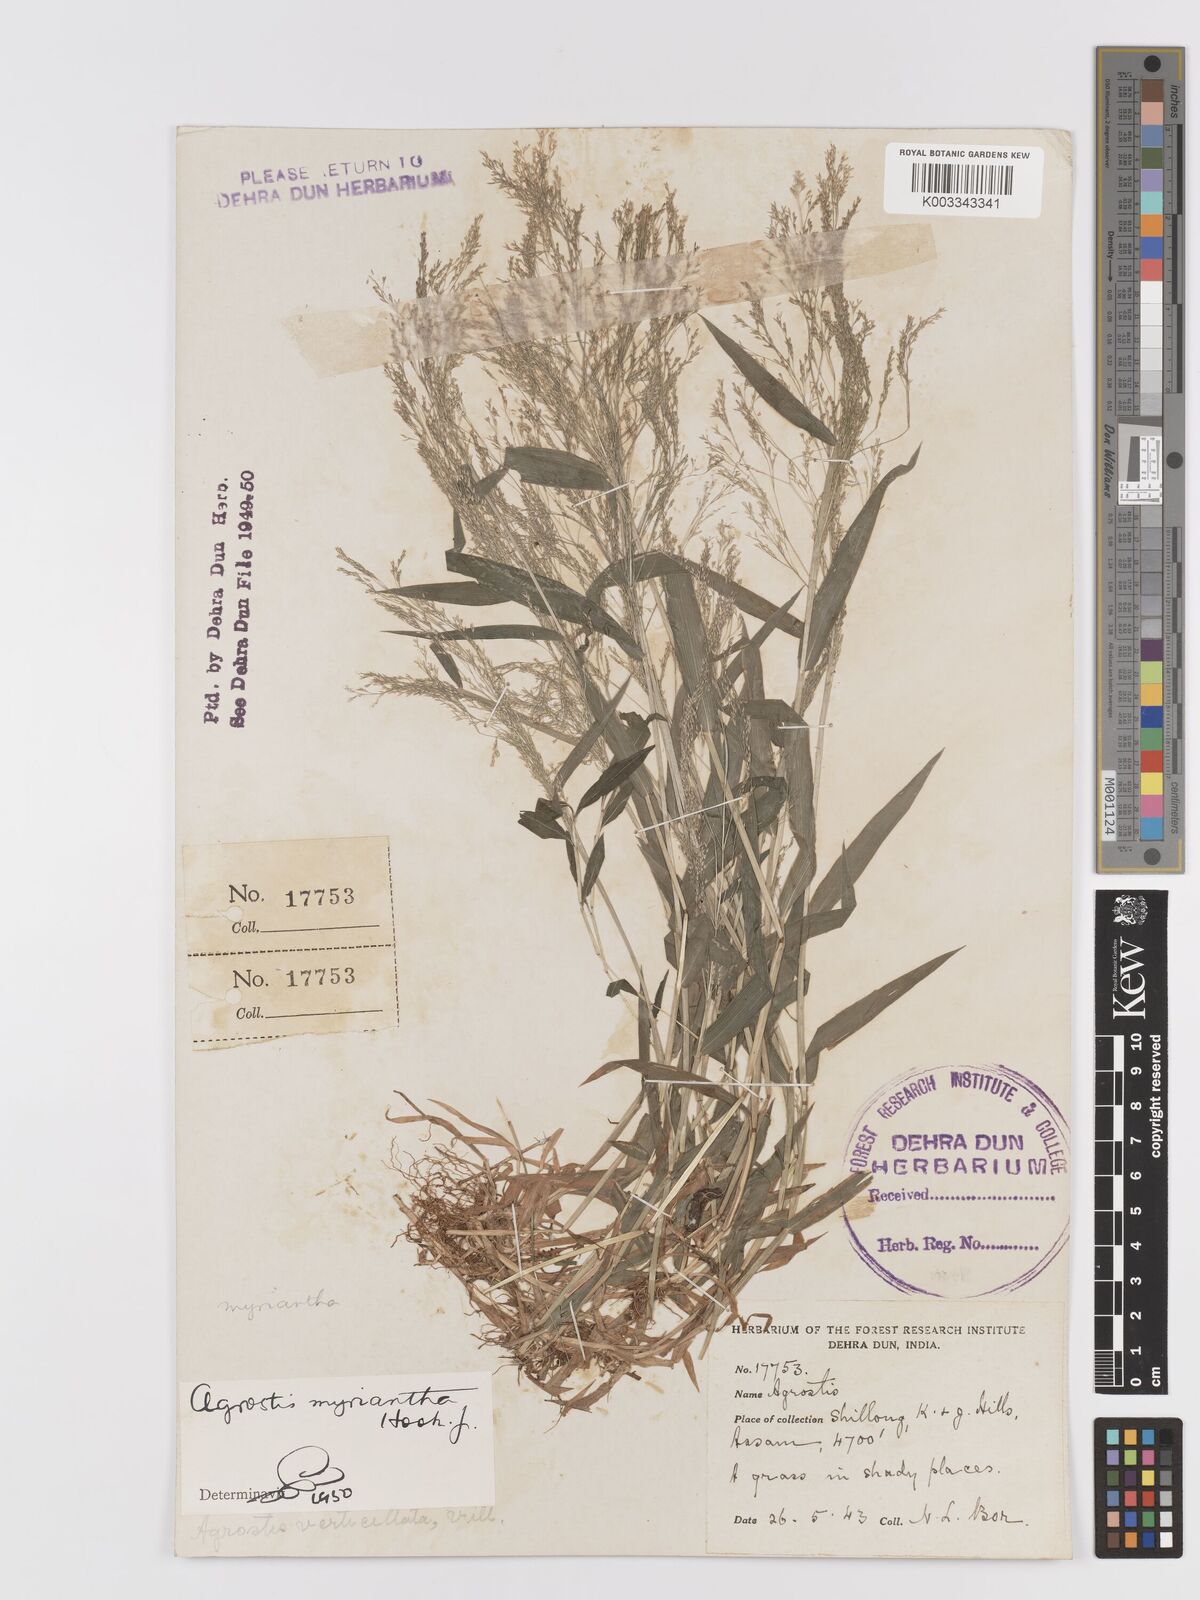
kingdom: Plantae
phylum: Tracheophyta
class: Liliopsida
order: Poales
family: Poaceae
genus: Agrostis
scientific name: Agrostis micrantha
